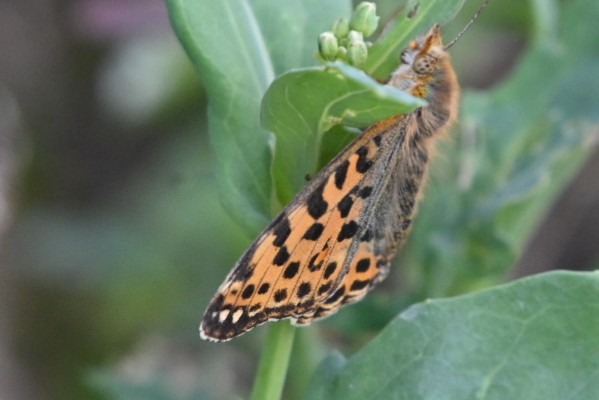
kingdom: Animalia
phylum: Arthropoda
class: Insecta
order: Lepidoptera
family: Nymphalidae
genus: Issoria
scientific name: Issoria lathonia
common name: Storplettet perlemorsommerfugl
